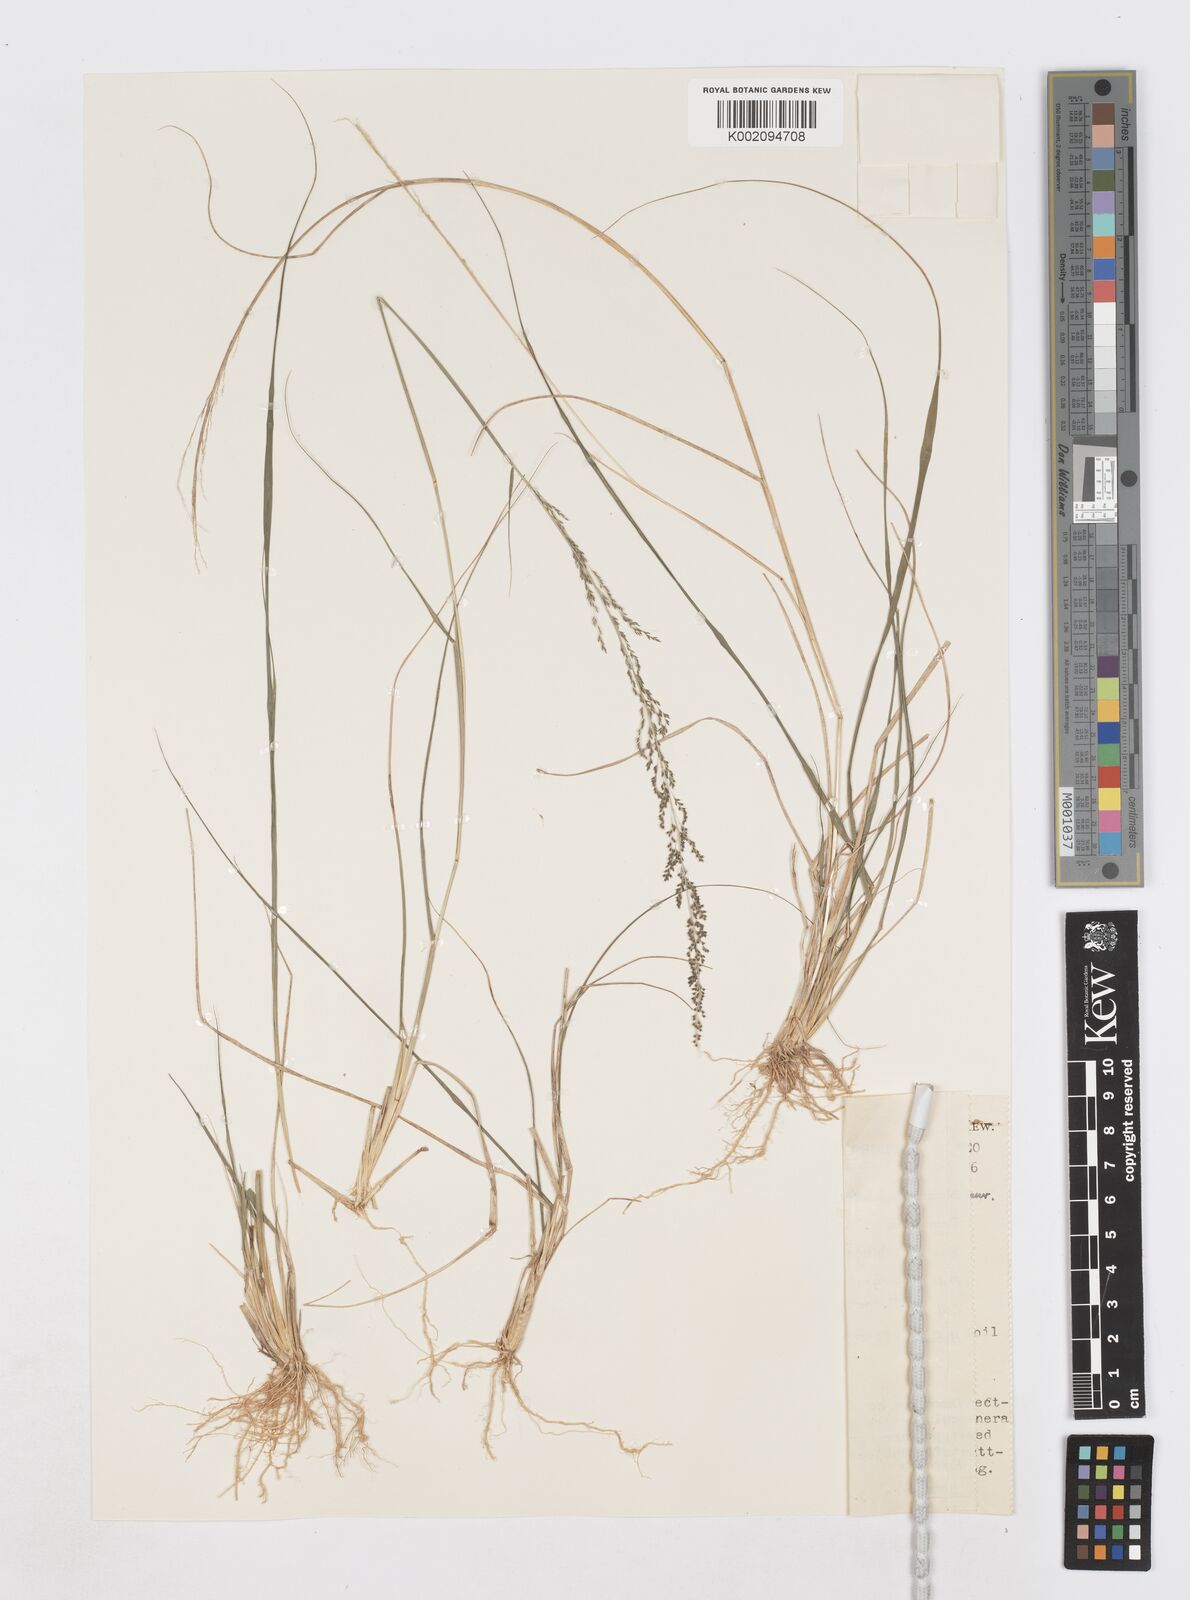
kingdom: Plantae
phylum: Tracheophyta
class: Liliopsida
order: Poales
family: Poaceae
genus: Sporobolus
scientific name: Sporobolus diandrus
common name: Tussock dropseed
